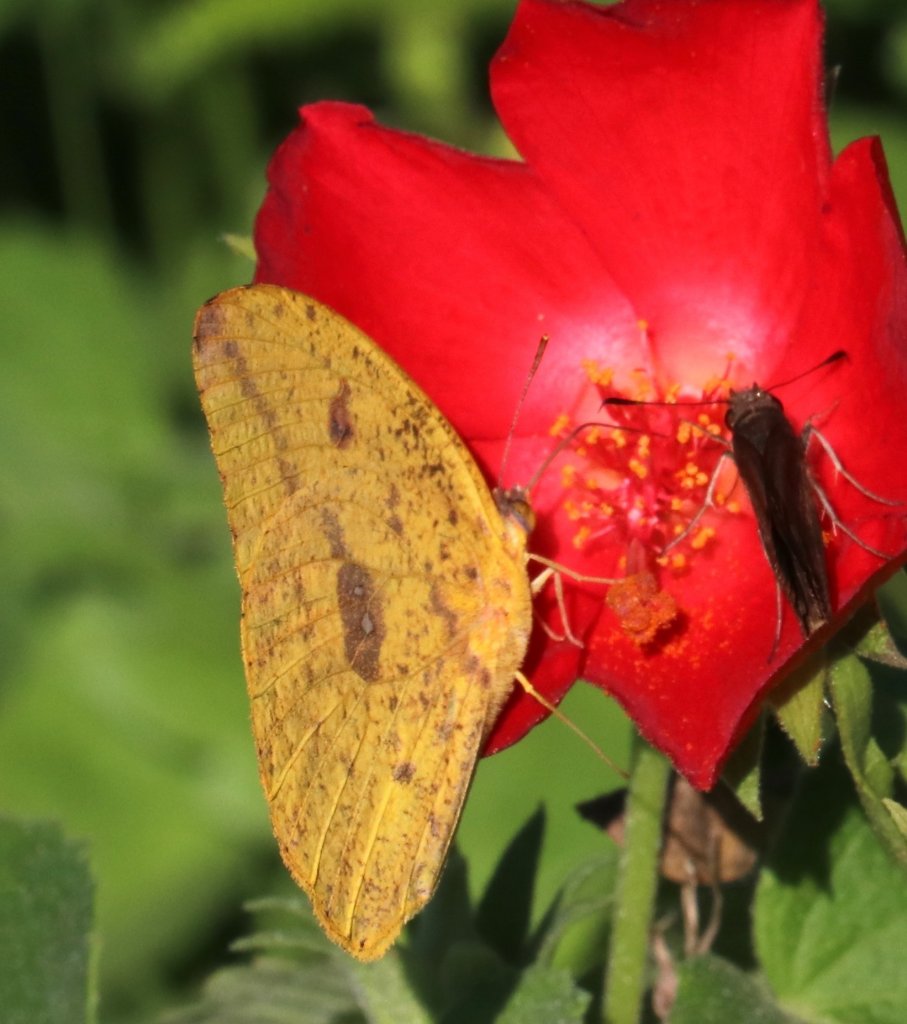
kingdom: Animalia
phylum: Arthropoda
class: Insecta
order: Lepidoptera
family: Pieridae
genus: Phoebis
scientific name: Phoebis agarithe
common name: Large Orange Sulphur
